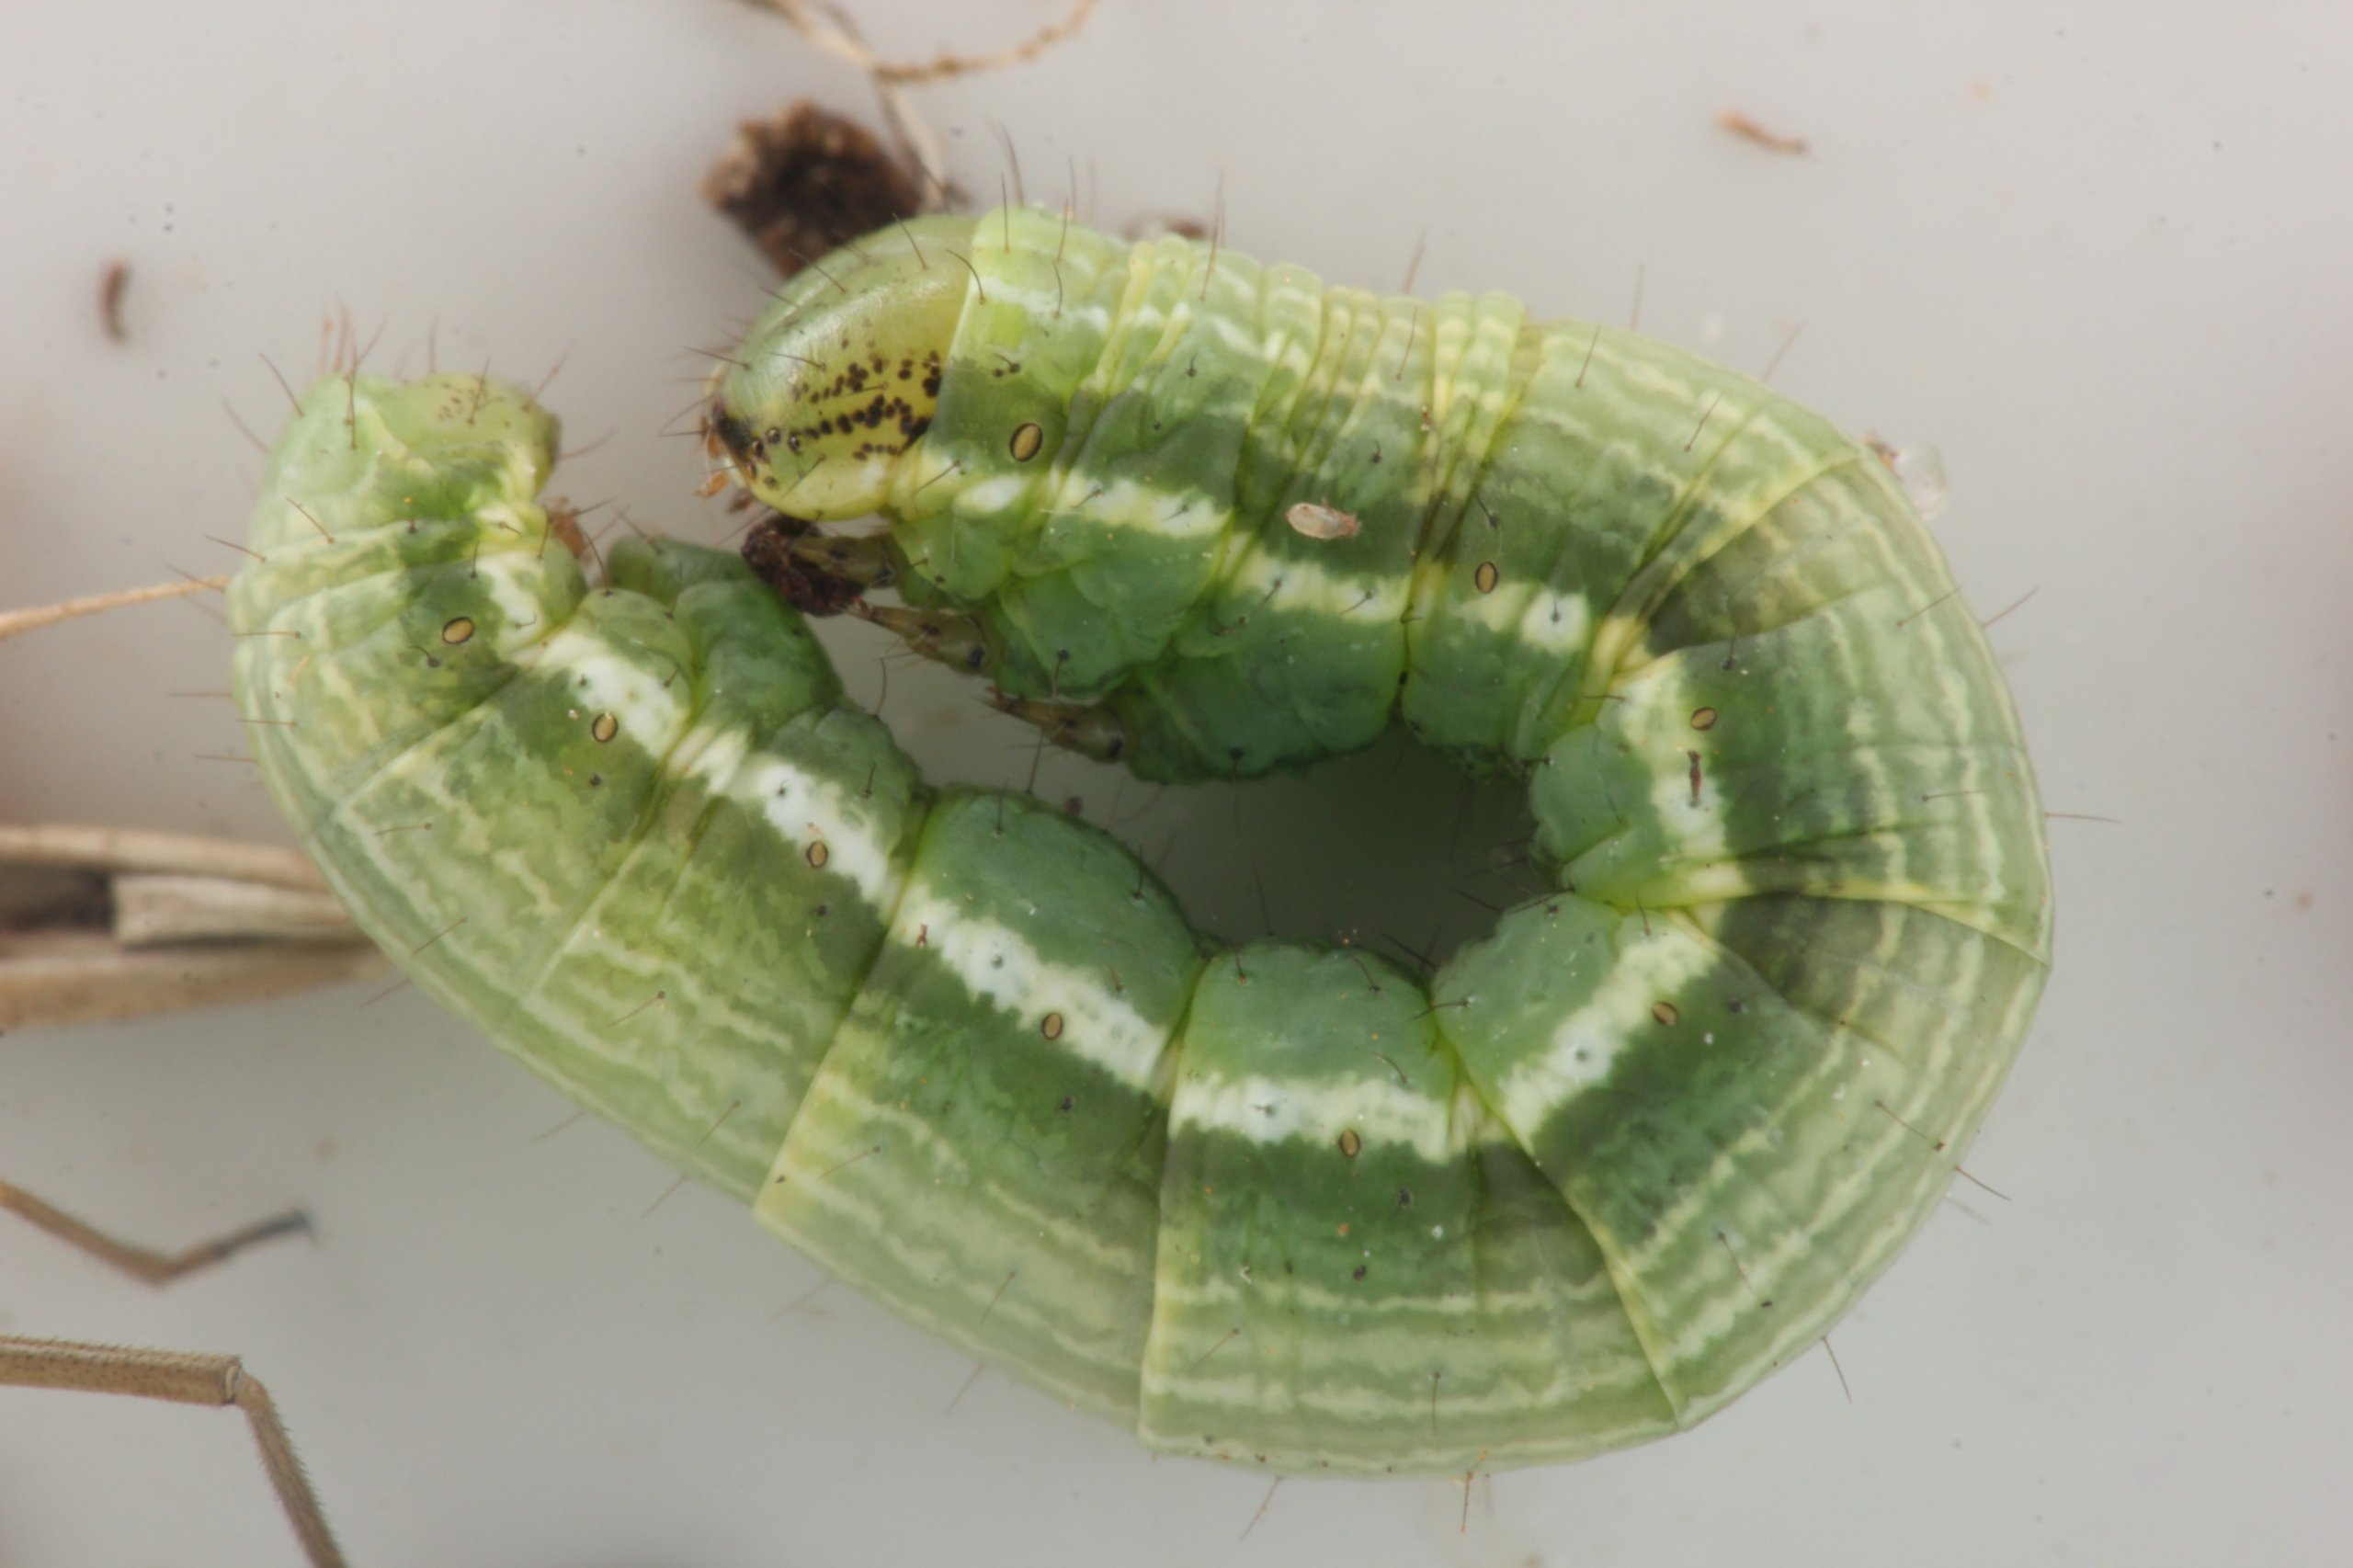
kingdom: Animalia
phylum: Arthropoda
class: Insecta
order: Lepidoptera
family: Geometridae
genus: Chiasmia
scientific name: Chiasmia clathrata
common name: Kløvermåler
